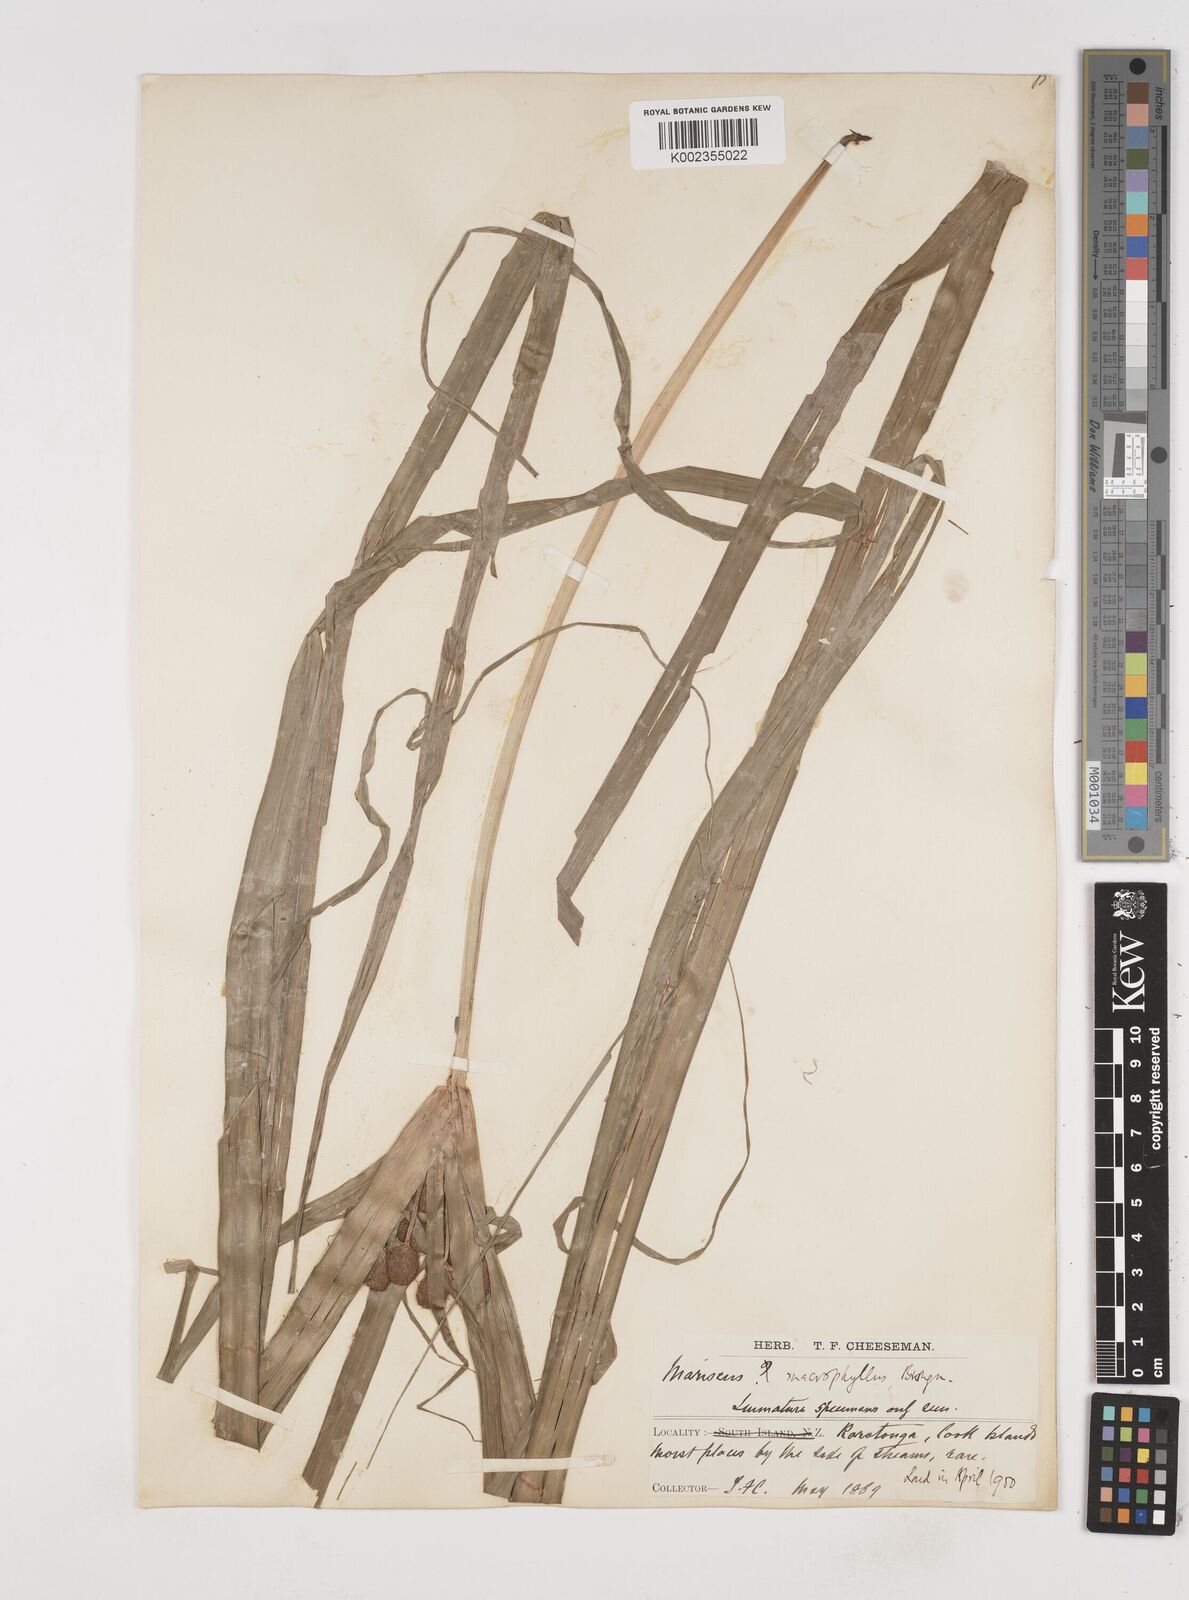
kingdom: Plantae
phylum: Tracheophyta
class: Liliopsida
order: Poales
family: Cyperaceae
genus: Cyperus
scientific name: Cyperus macrophyllus
